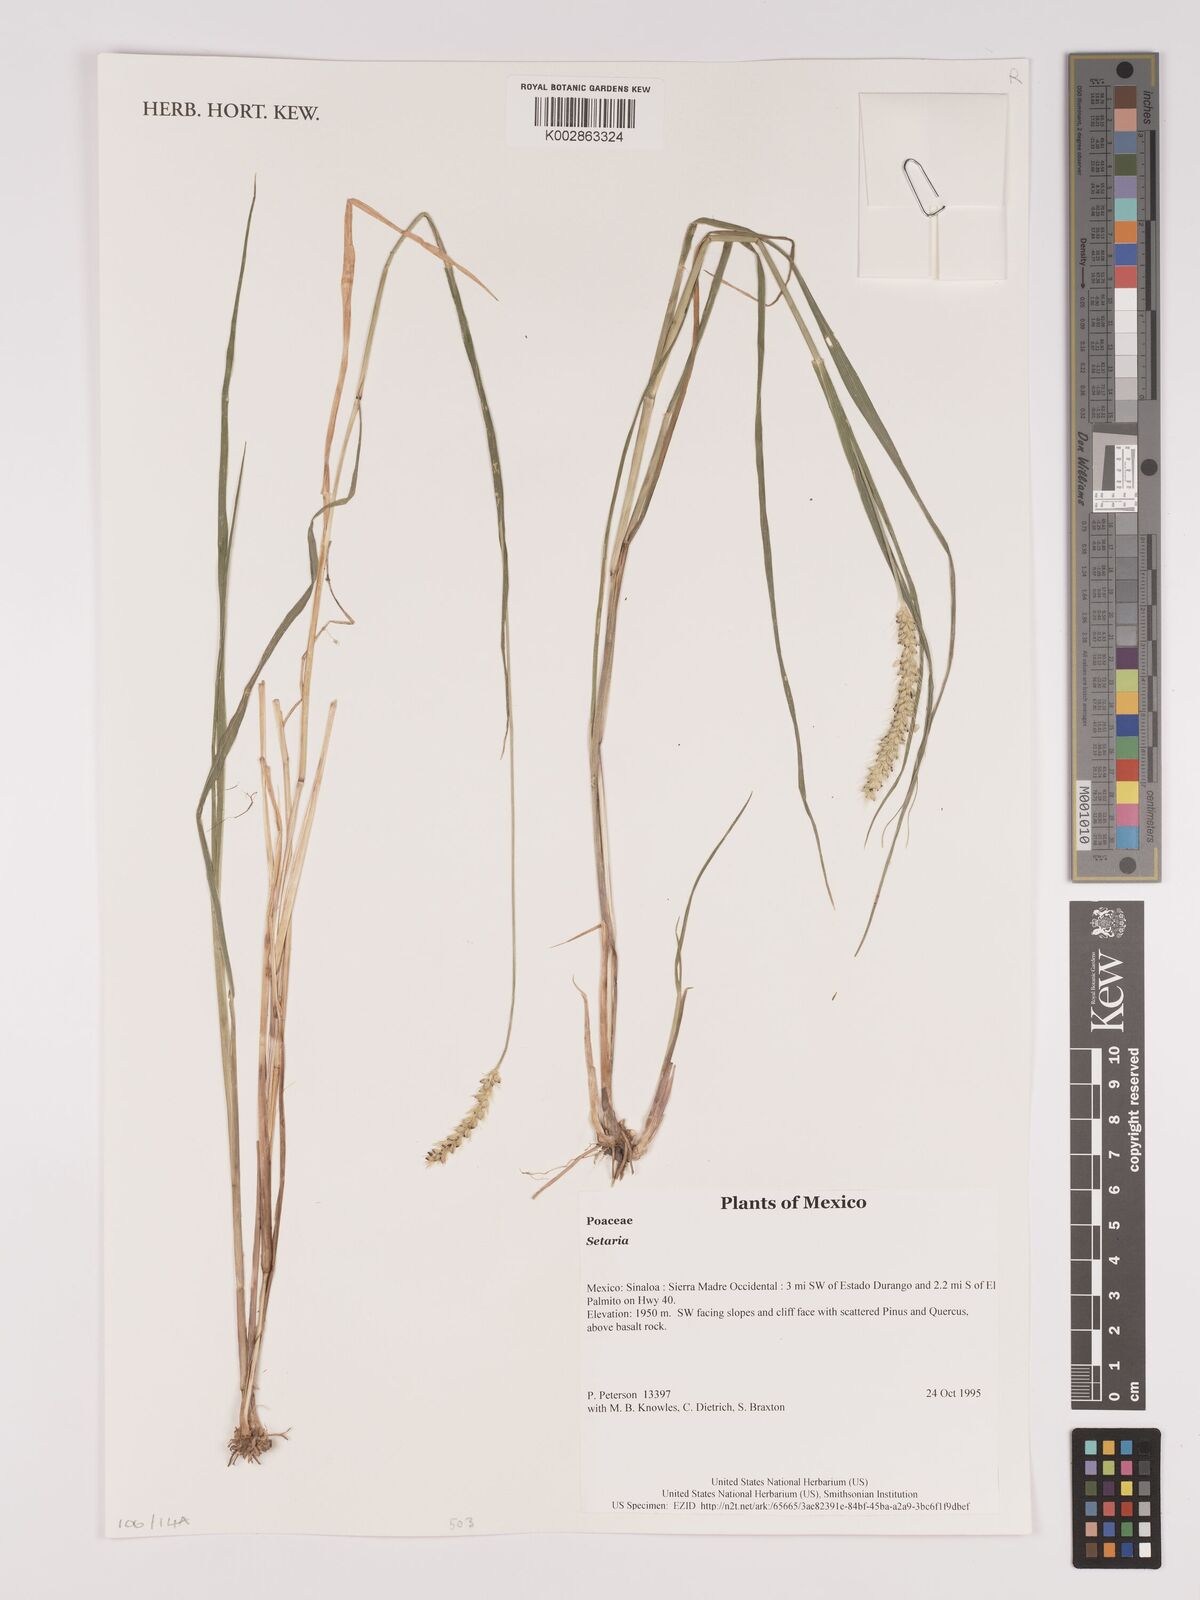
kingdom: Plantae
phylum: Tracheophyta
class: Liliopsida
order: Poales
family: Poaceae
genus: Setaria
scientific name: Setaria
